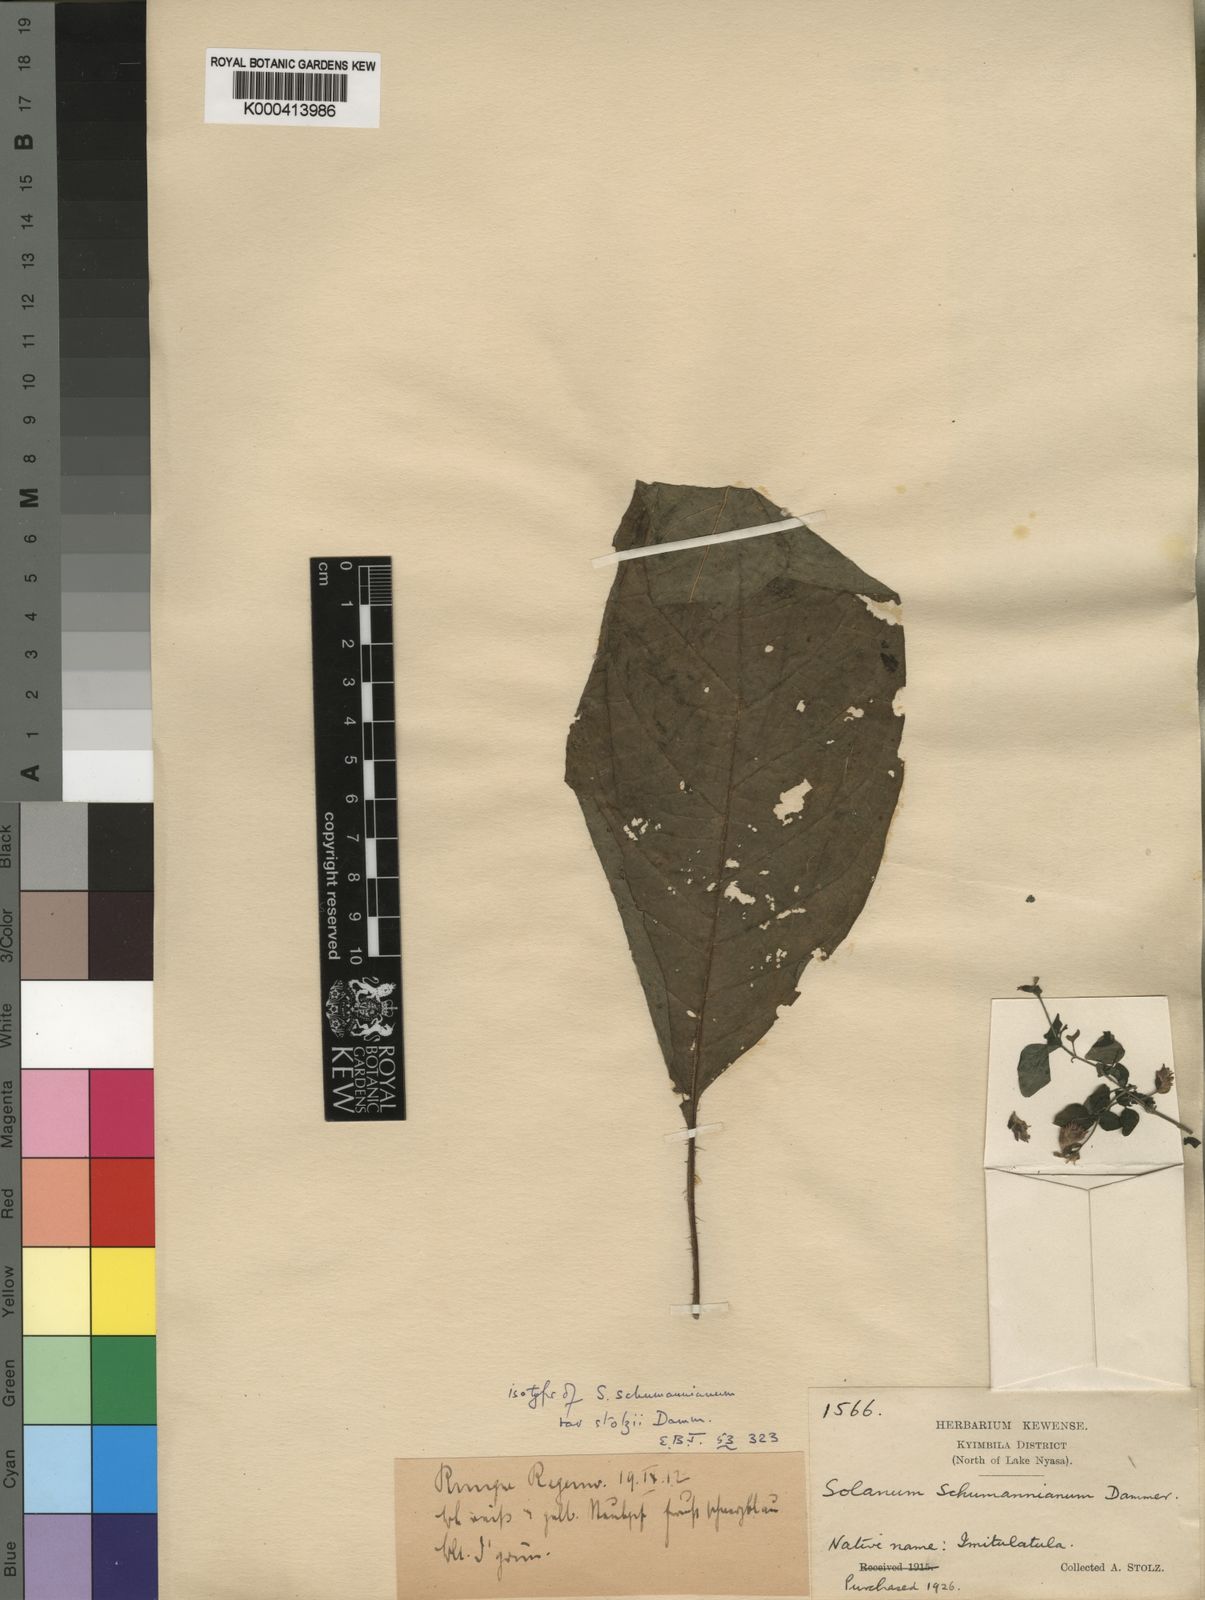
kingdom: Plantae
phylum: Tracheophyta
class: Magnoliopsida
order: Solanales
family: Solanaceae
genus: Solanum
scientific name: Solanum schumannianum
